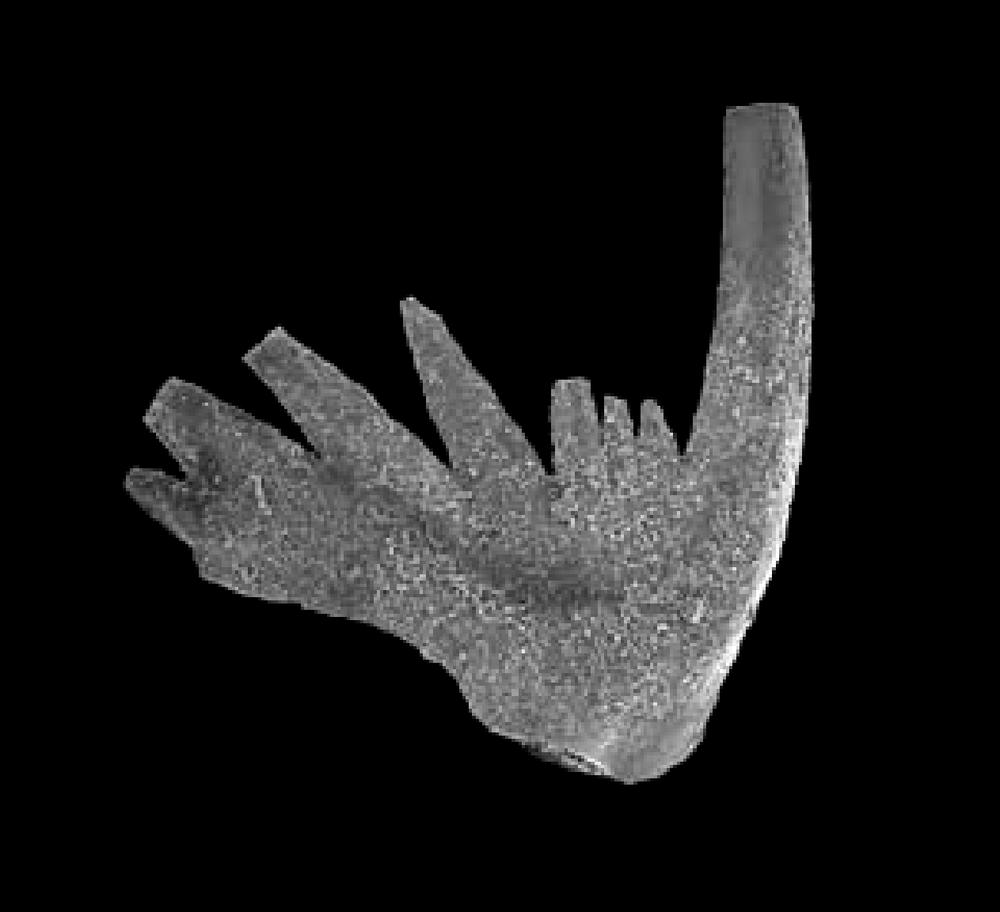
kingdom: Animalia
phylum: Chordata
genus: Periodon
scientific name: Periodon aculeatus
